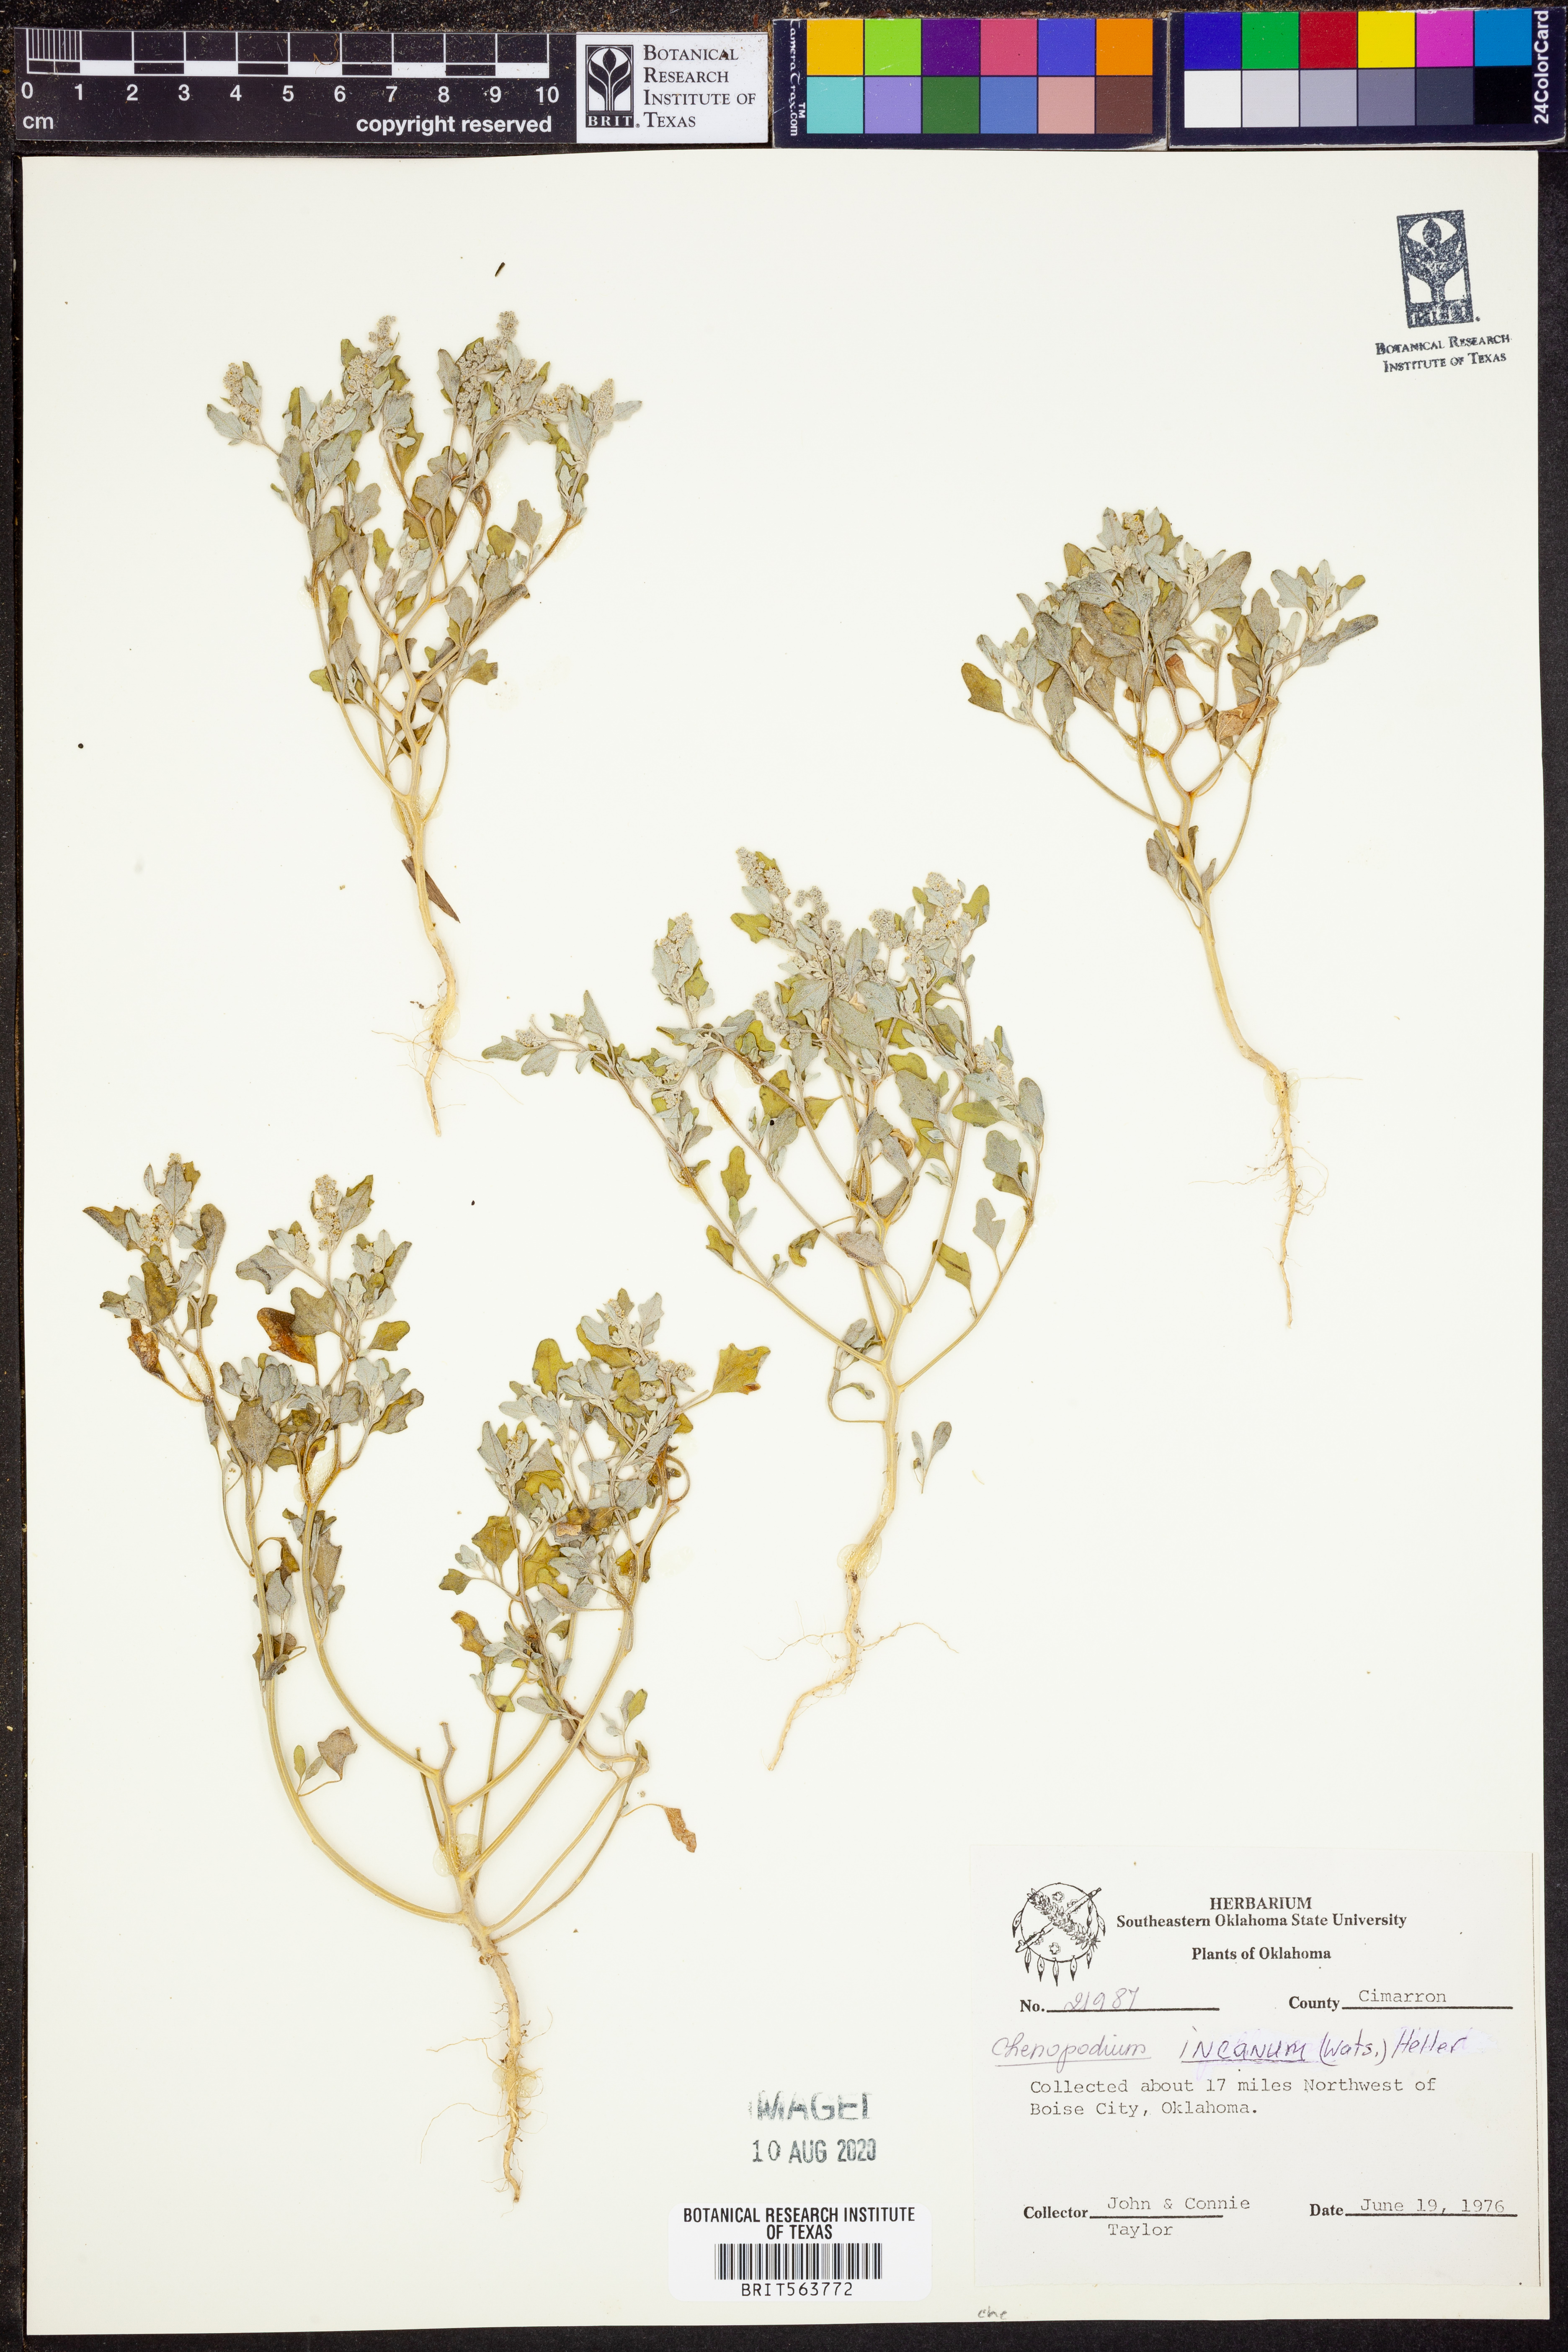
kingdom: Plantae
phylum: Tracheophyta
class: Magnoliopsida
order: Caryophyllales
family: Amaranthaceae
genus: Chenopodium
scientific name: Chenopodium incanum
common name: Hoary goosefoot
